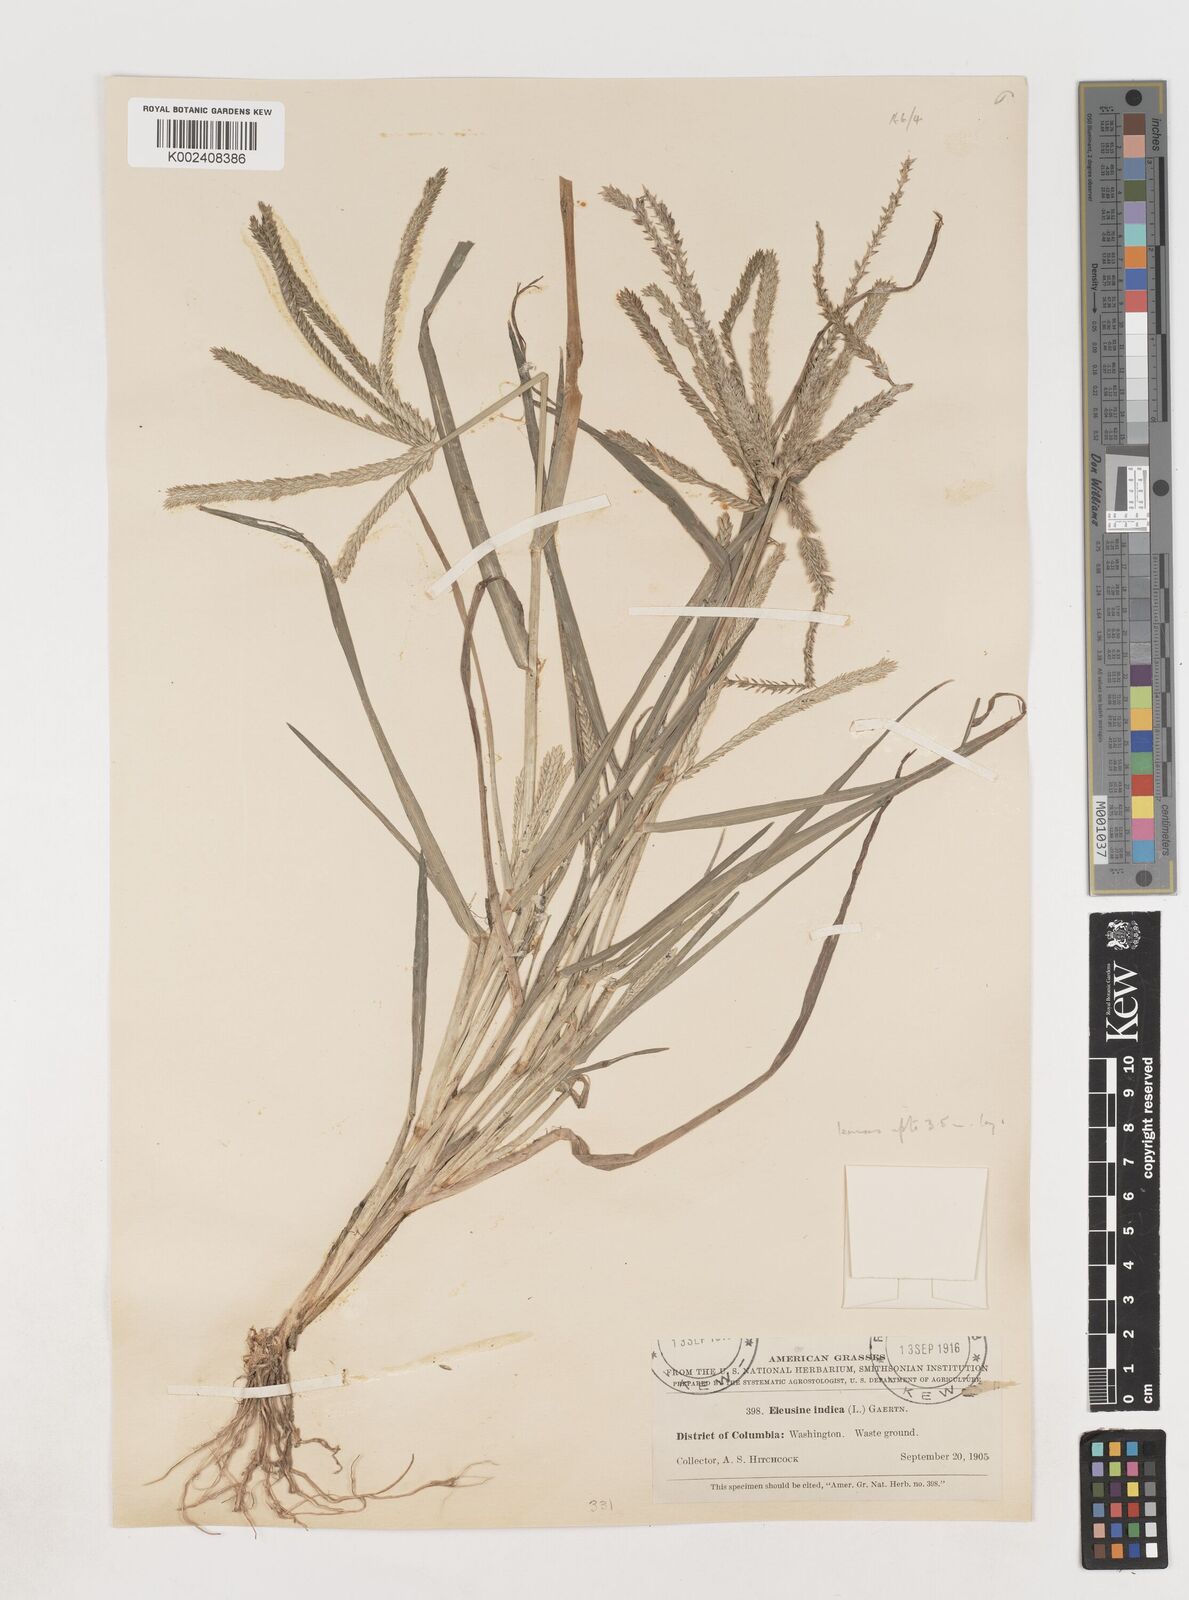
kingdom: Plantae
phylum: Tracheophyta
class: Liliopsida
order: Poales
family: Poaceae
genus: Eleusine
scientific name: Eleusine indica
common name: Yard-grass
